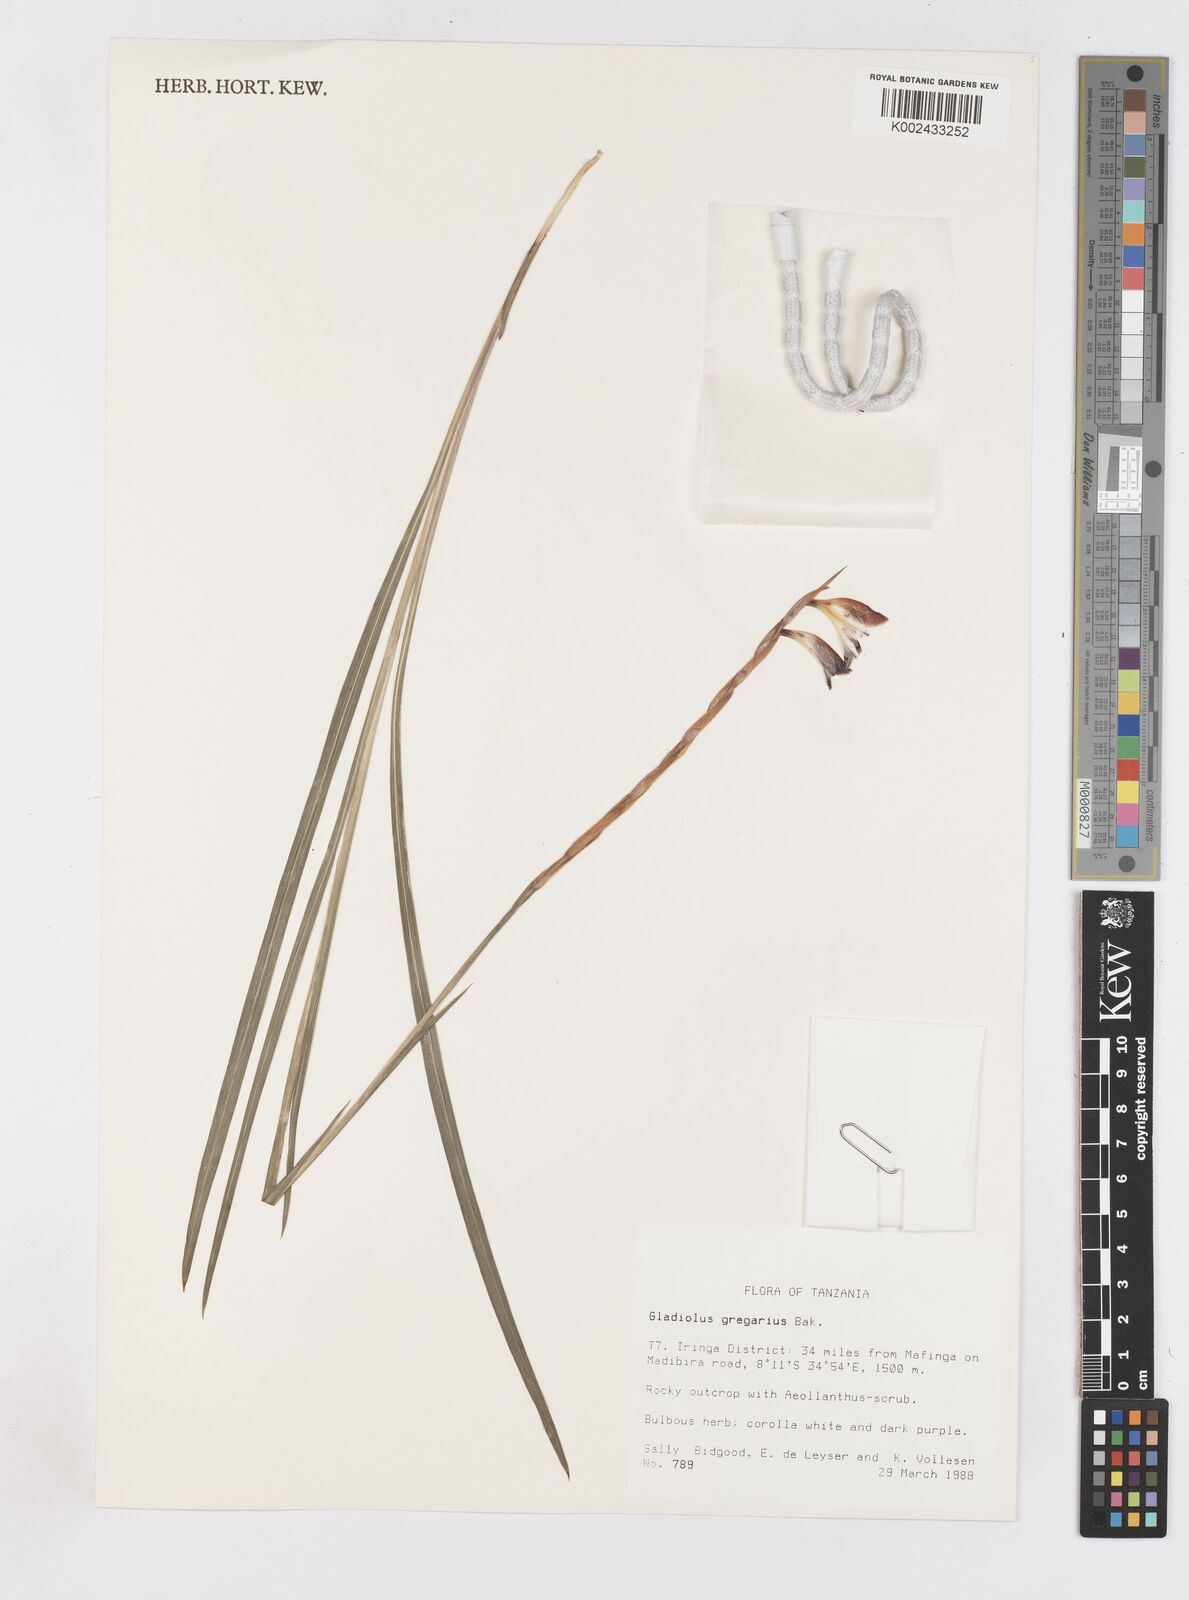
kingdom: Plantae
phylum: Tracheophyta
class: Liliopsida
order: Asparagales
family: Iridaceae
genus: Gladiolus
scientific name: Gladiolus gregarius
